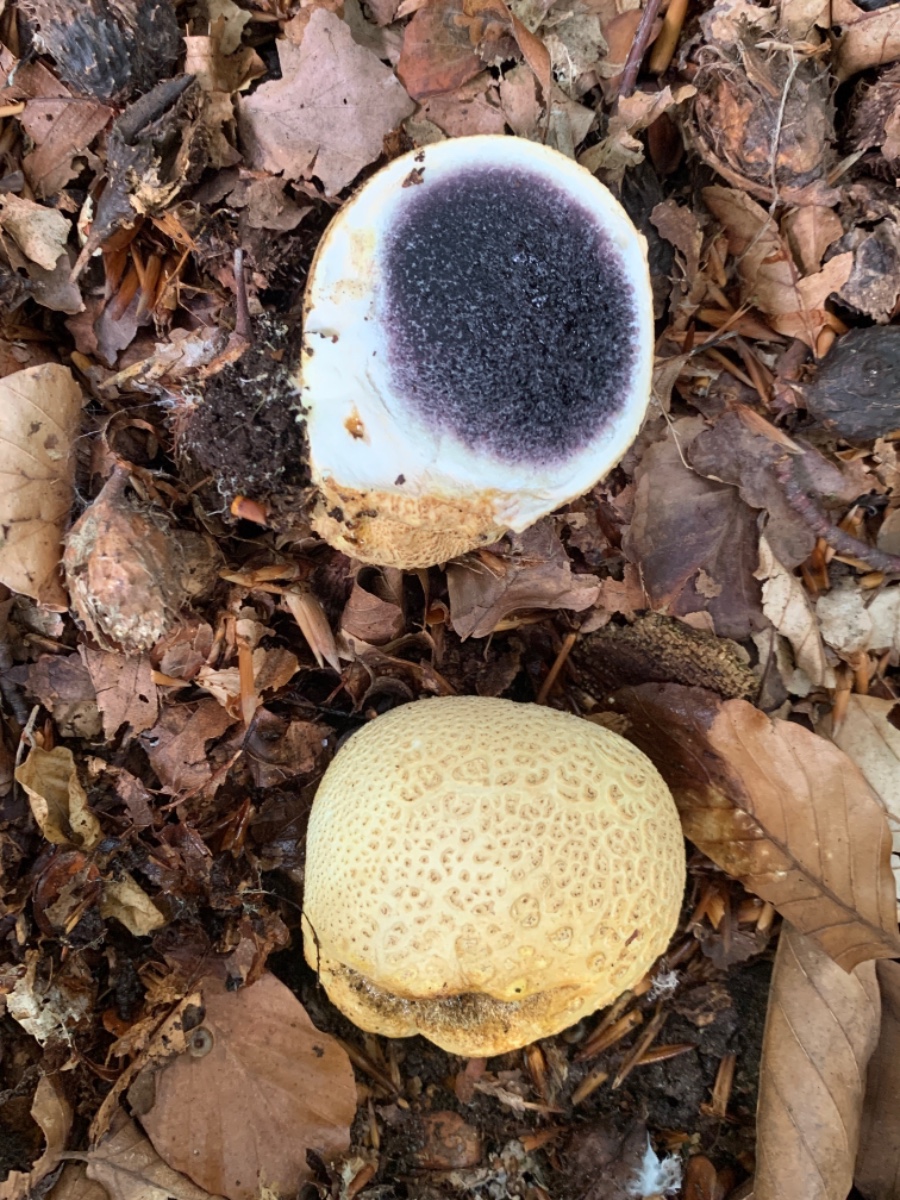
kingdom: Fungi
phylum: Basidiomycota
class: Agaricomycetes
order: Boletales
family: Sclerodermataceae
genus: Scleroderma
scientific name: Scleroderma citrinum
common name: almindelig bruskbold
